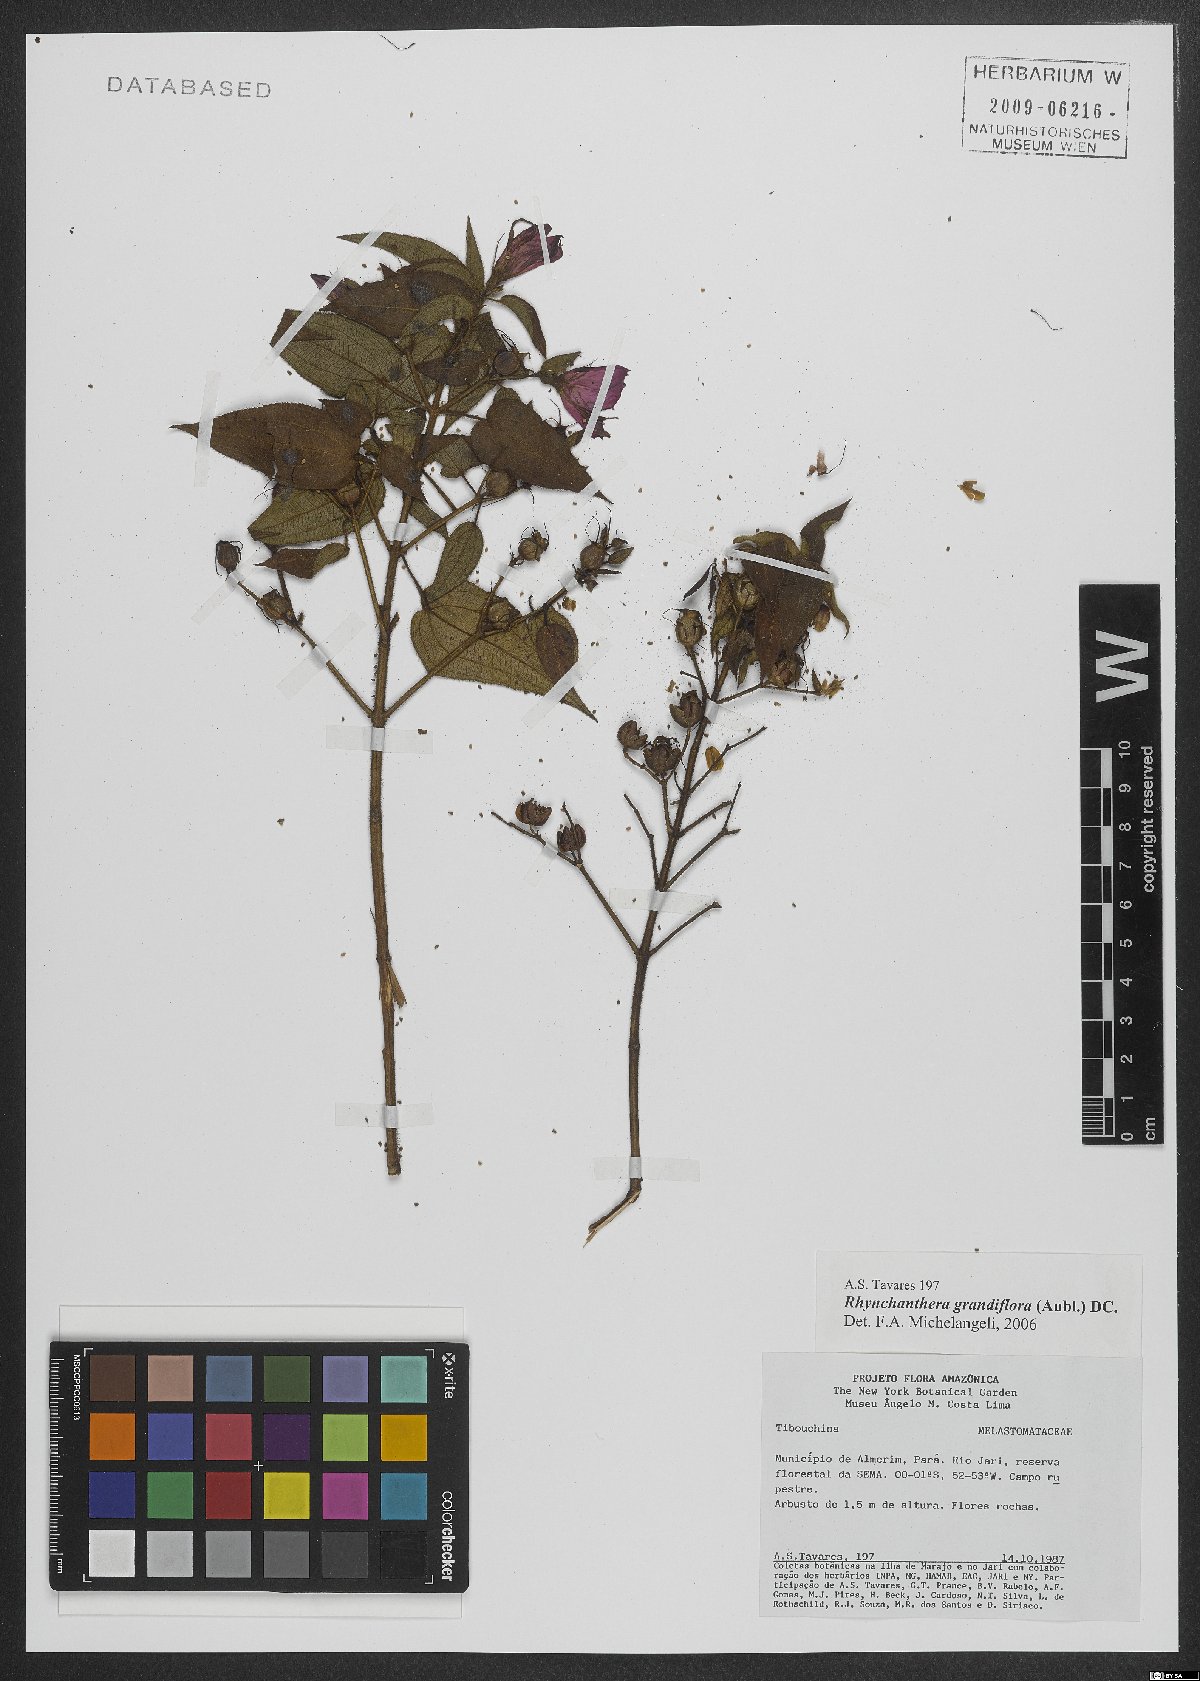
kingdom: Plantae
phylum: Tracheophyta
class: Magnoliopsida
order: Myrtales
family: Melastomataceae
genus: Rhynchanthera
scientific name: Rhynchanthera grandiflora
